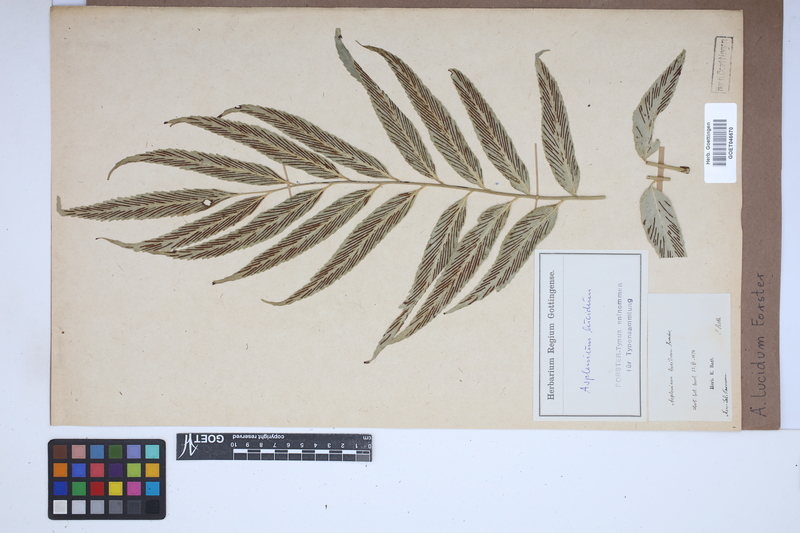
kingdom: Plantae
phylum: Tracheophyta
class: Polypodiopsida
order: Polypodiales
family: Aspleniaceae
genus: Asplenium
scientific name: Asplenium
